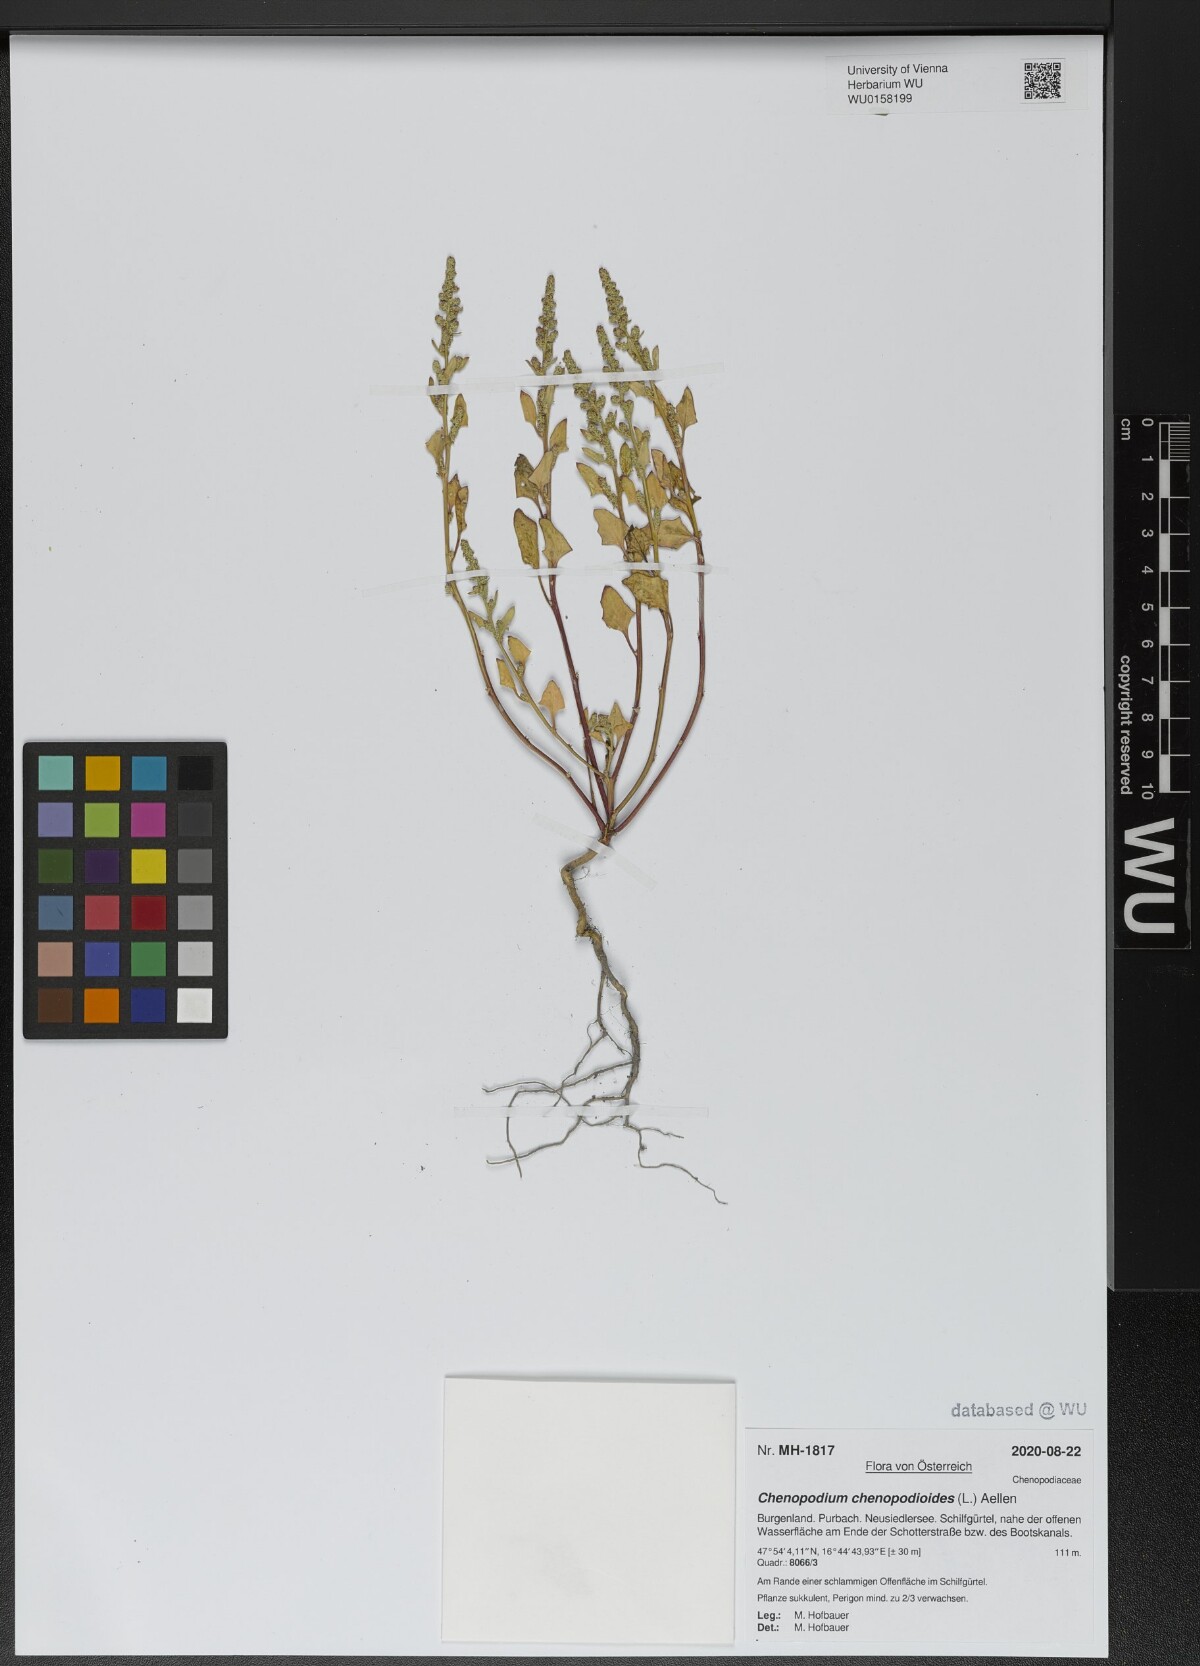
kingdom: Plantae
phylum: Tracheophyta
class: Magnoliopsida
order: Caryophyllales
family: Amaranthaceae
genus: Oxybasis
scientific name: Oxybasis chenopodioides
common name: Saltmarsh goosefoot
